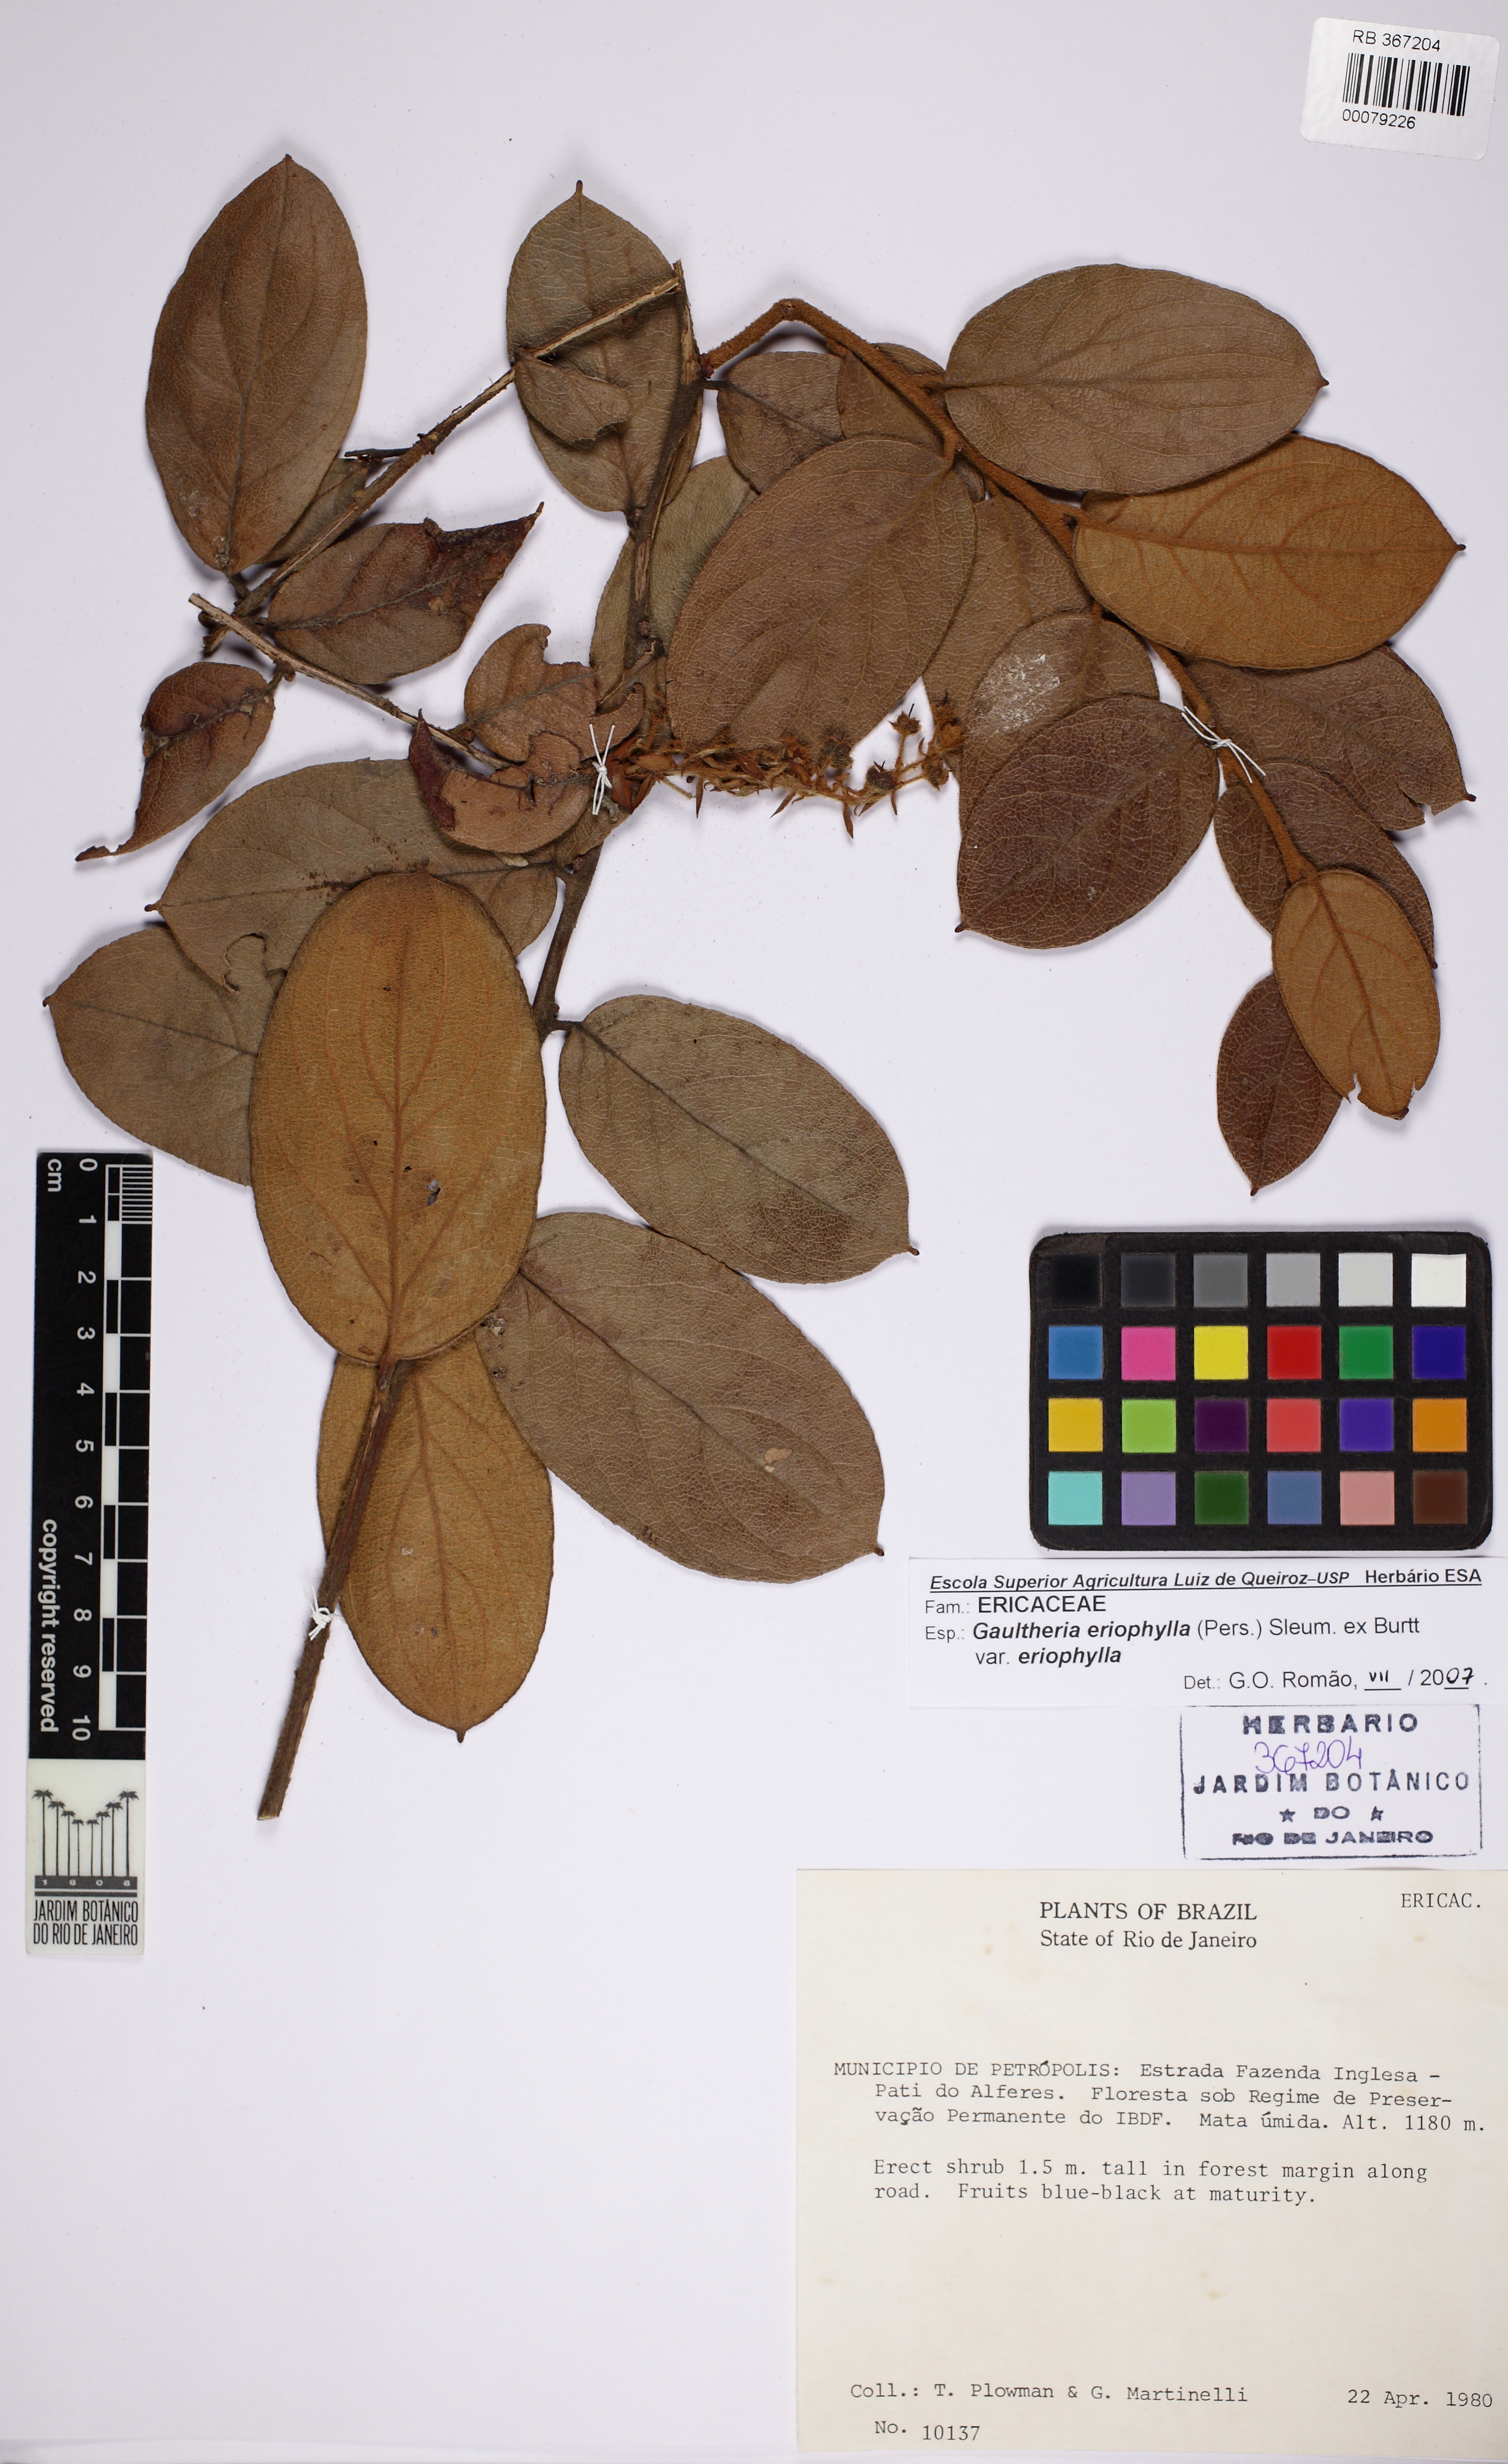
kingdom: Plantae
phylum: Tracheophyta
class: Magnoliopsida
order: Ericales
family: Ericaceae
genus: Gaultheria
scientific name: Gaultheria eriophylla
